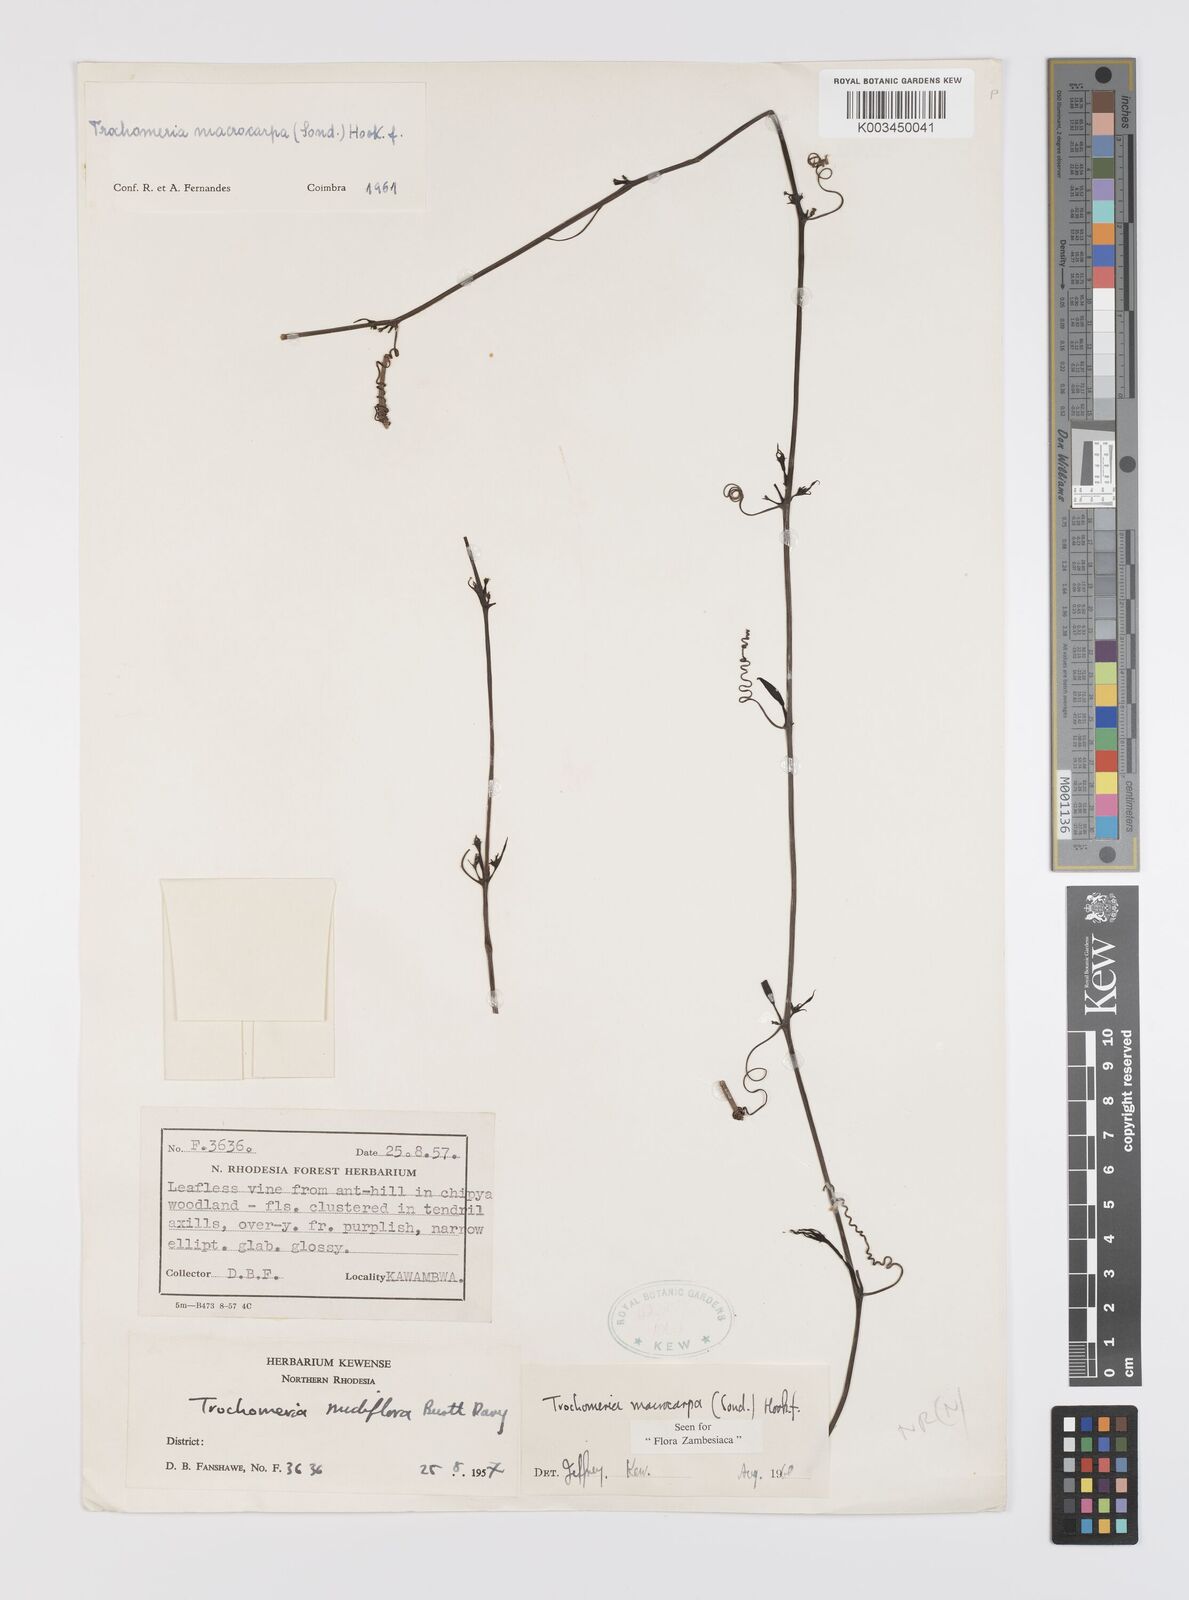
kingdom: Plantae
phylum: Tracheophyta
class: Magnoliopsida
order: Cucurbitales
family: Cucurbitaceae
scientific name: Cucurbitaceae
